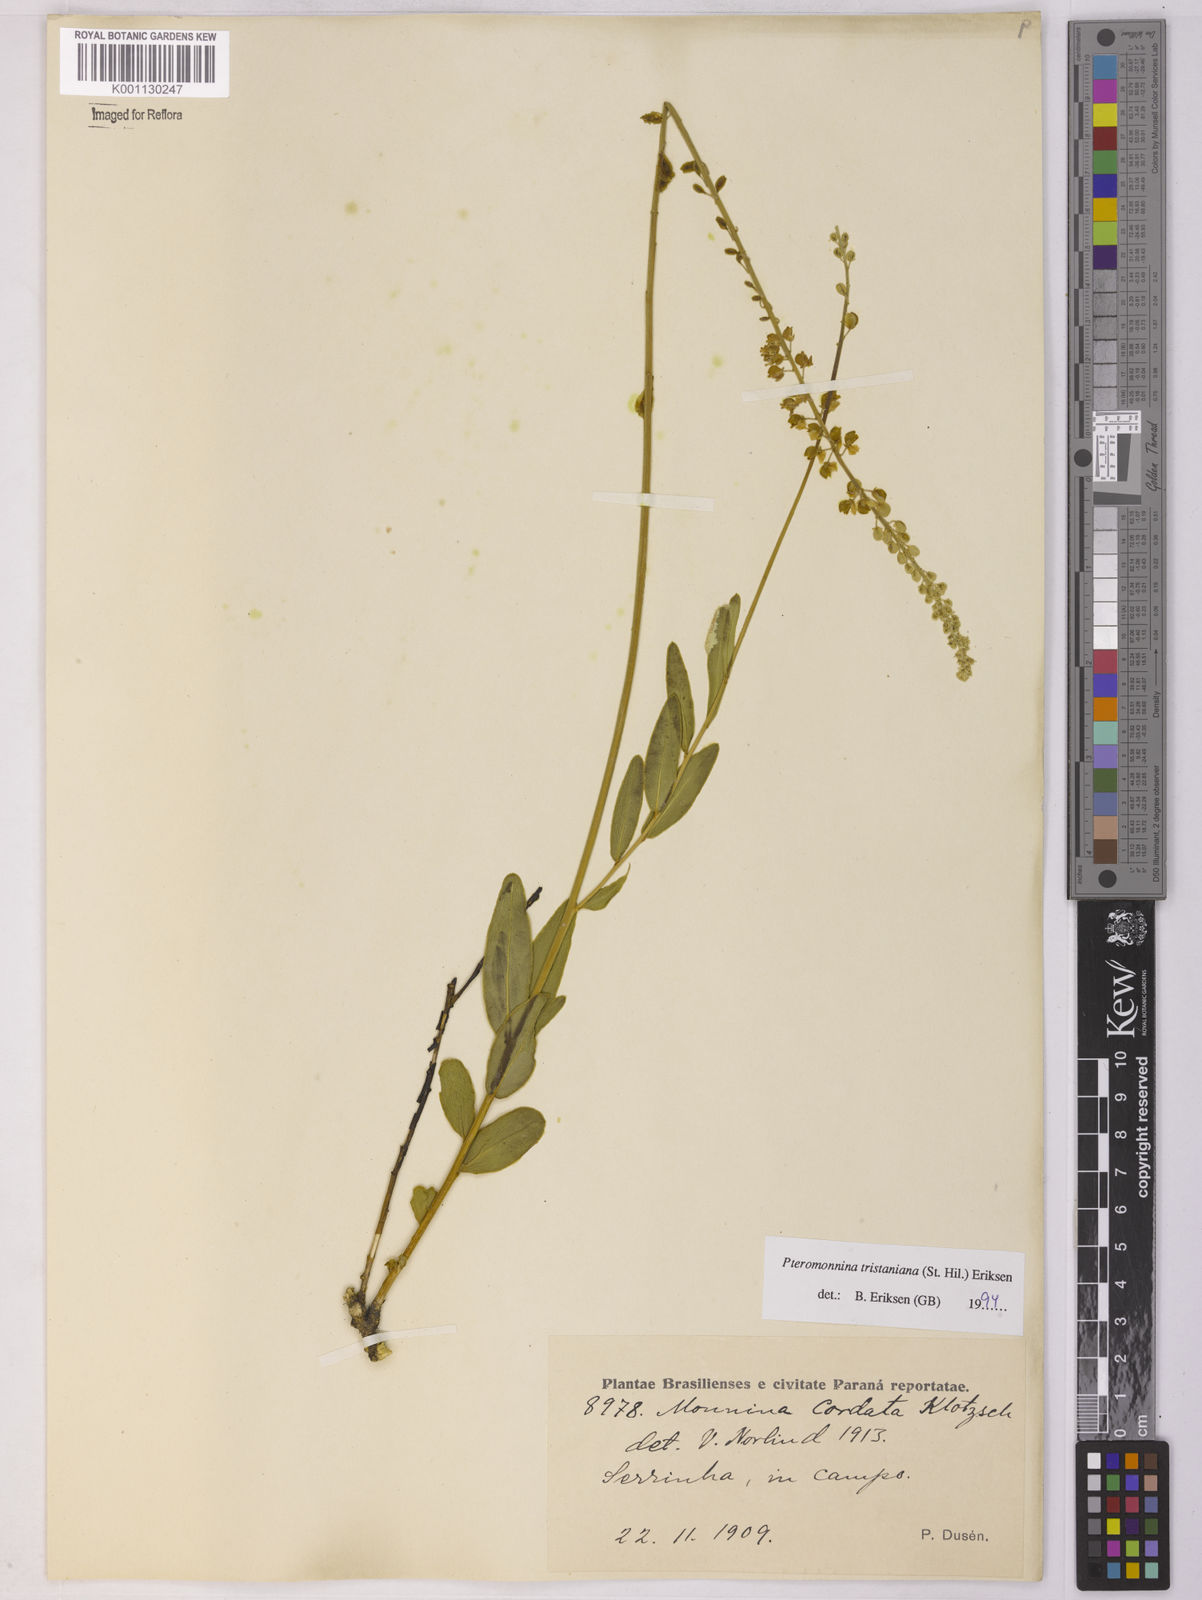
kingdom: Plantae
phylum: Tracheophyta
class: Magnoliopsida
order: Fabales
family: Polygalaceae
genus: Monnina
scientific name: Monnina richardiana
